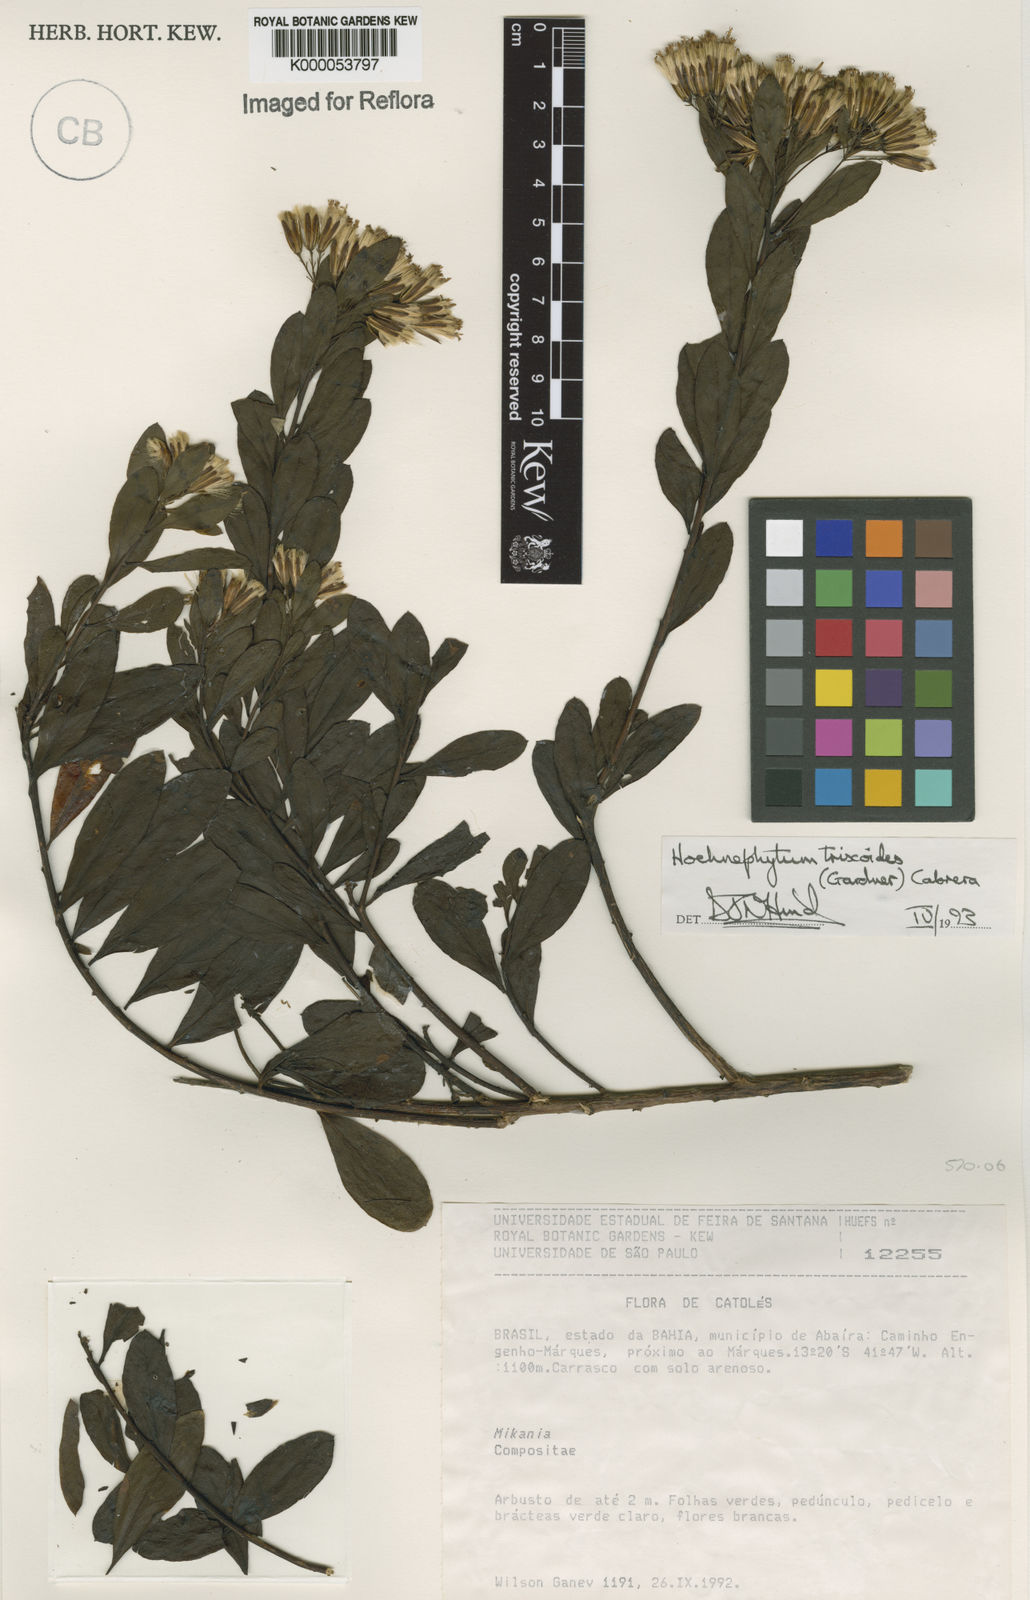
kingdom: Plantae
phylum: Tracheophyta
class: Magnoliopsida
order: Asterales
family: Asteraceae
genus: Hoehnephytum
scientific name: Hoehnephytum trixoides
